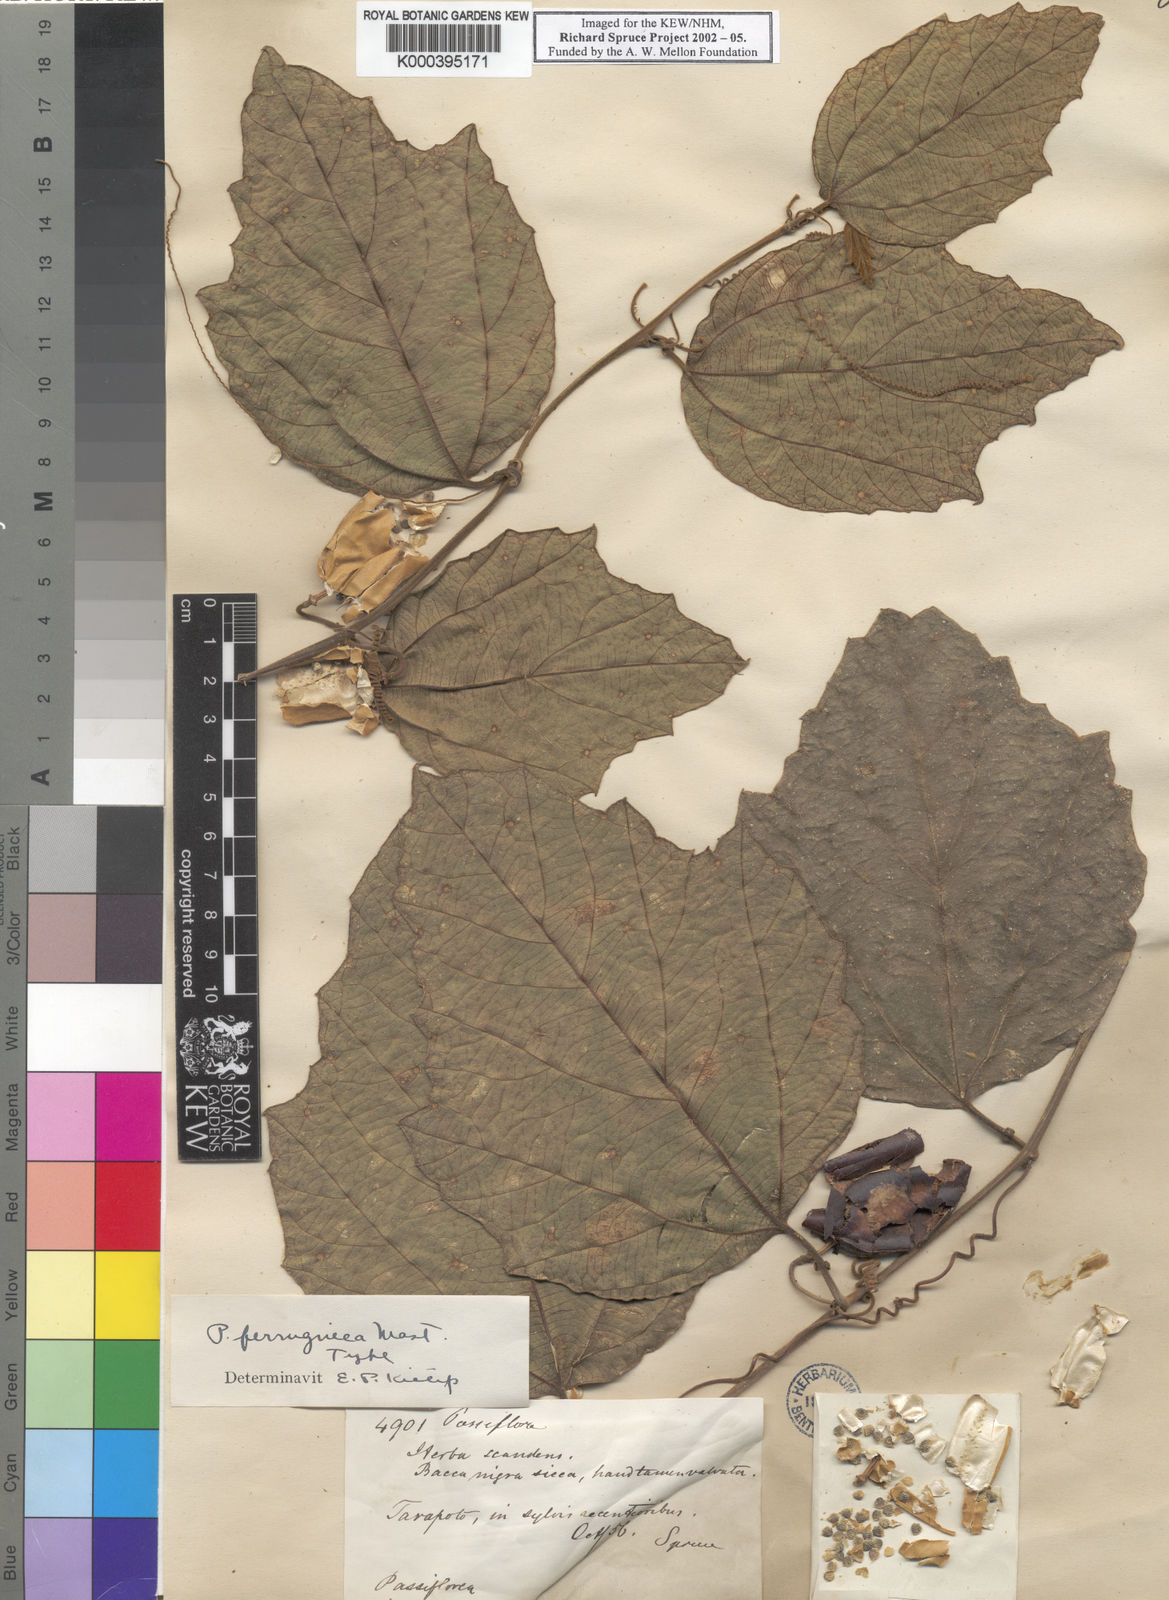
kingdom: Plantae
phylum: Tracheophyta
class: Magnoliopsida
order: Malpighiales
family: Passifloraceae
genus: Passiflora
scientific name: Passiflora ferruginea
